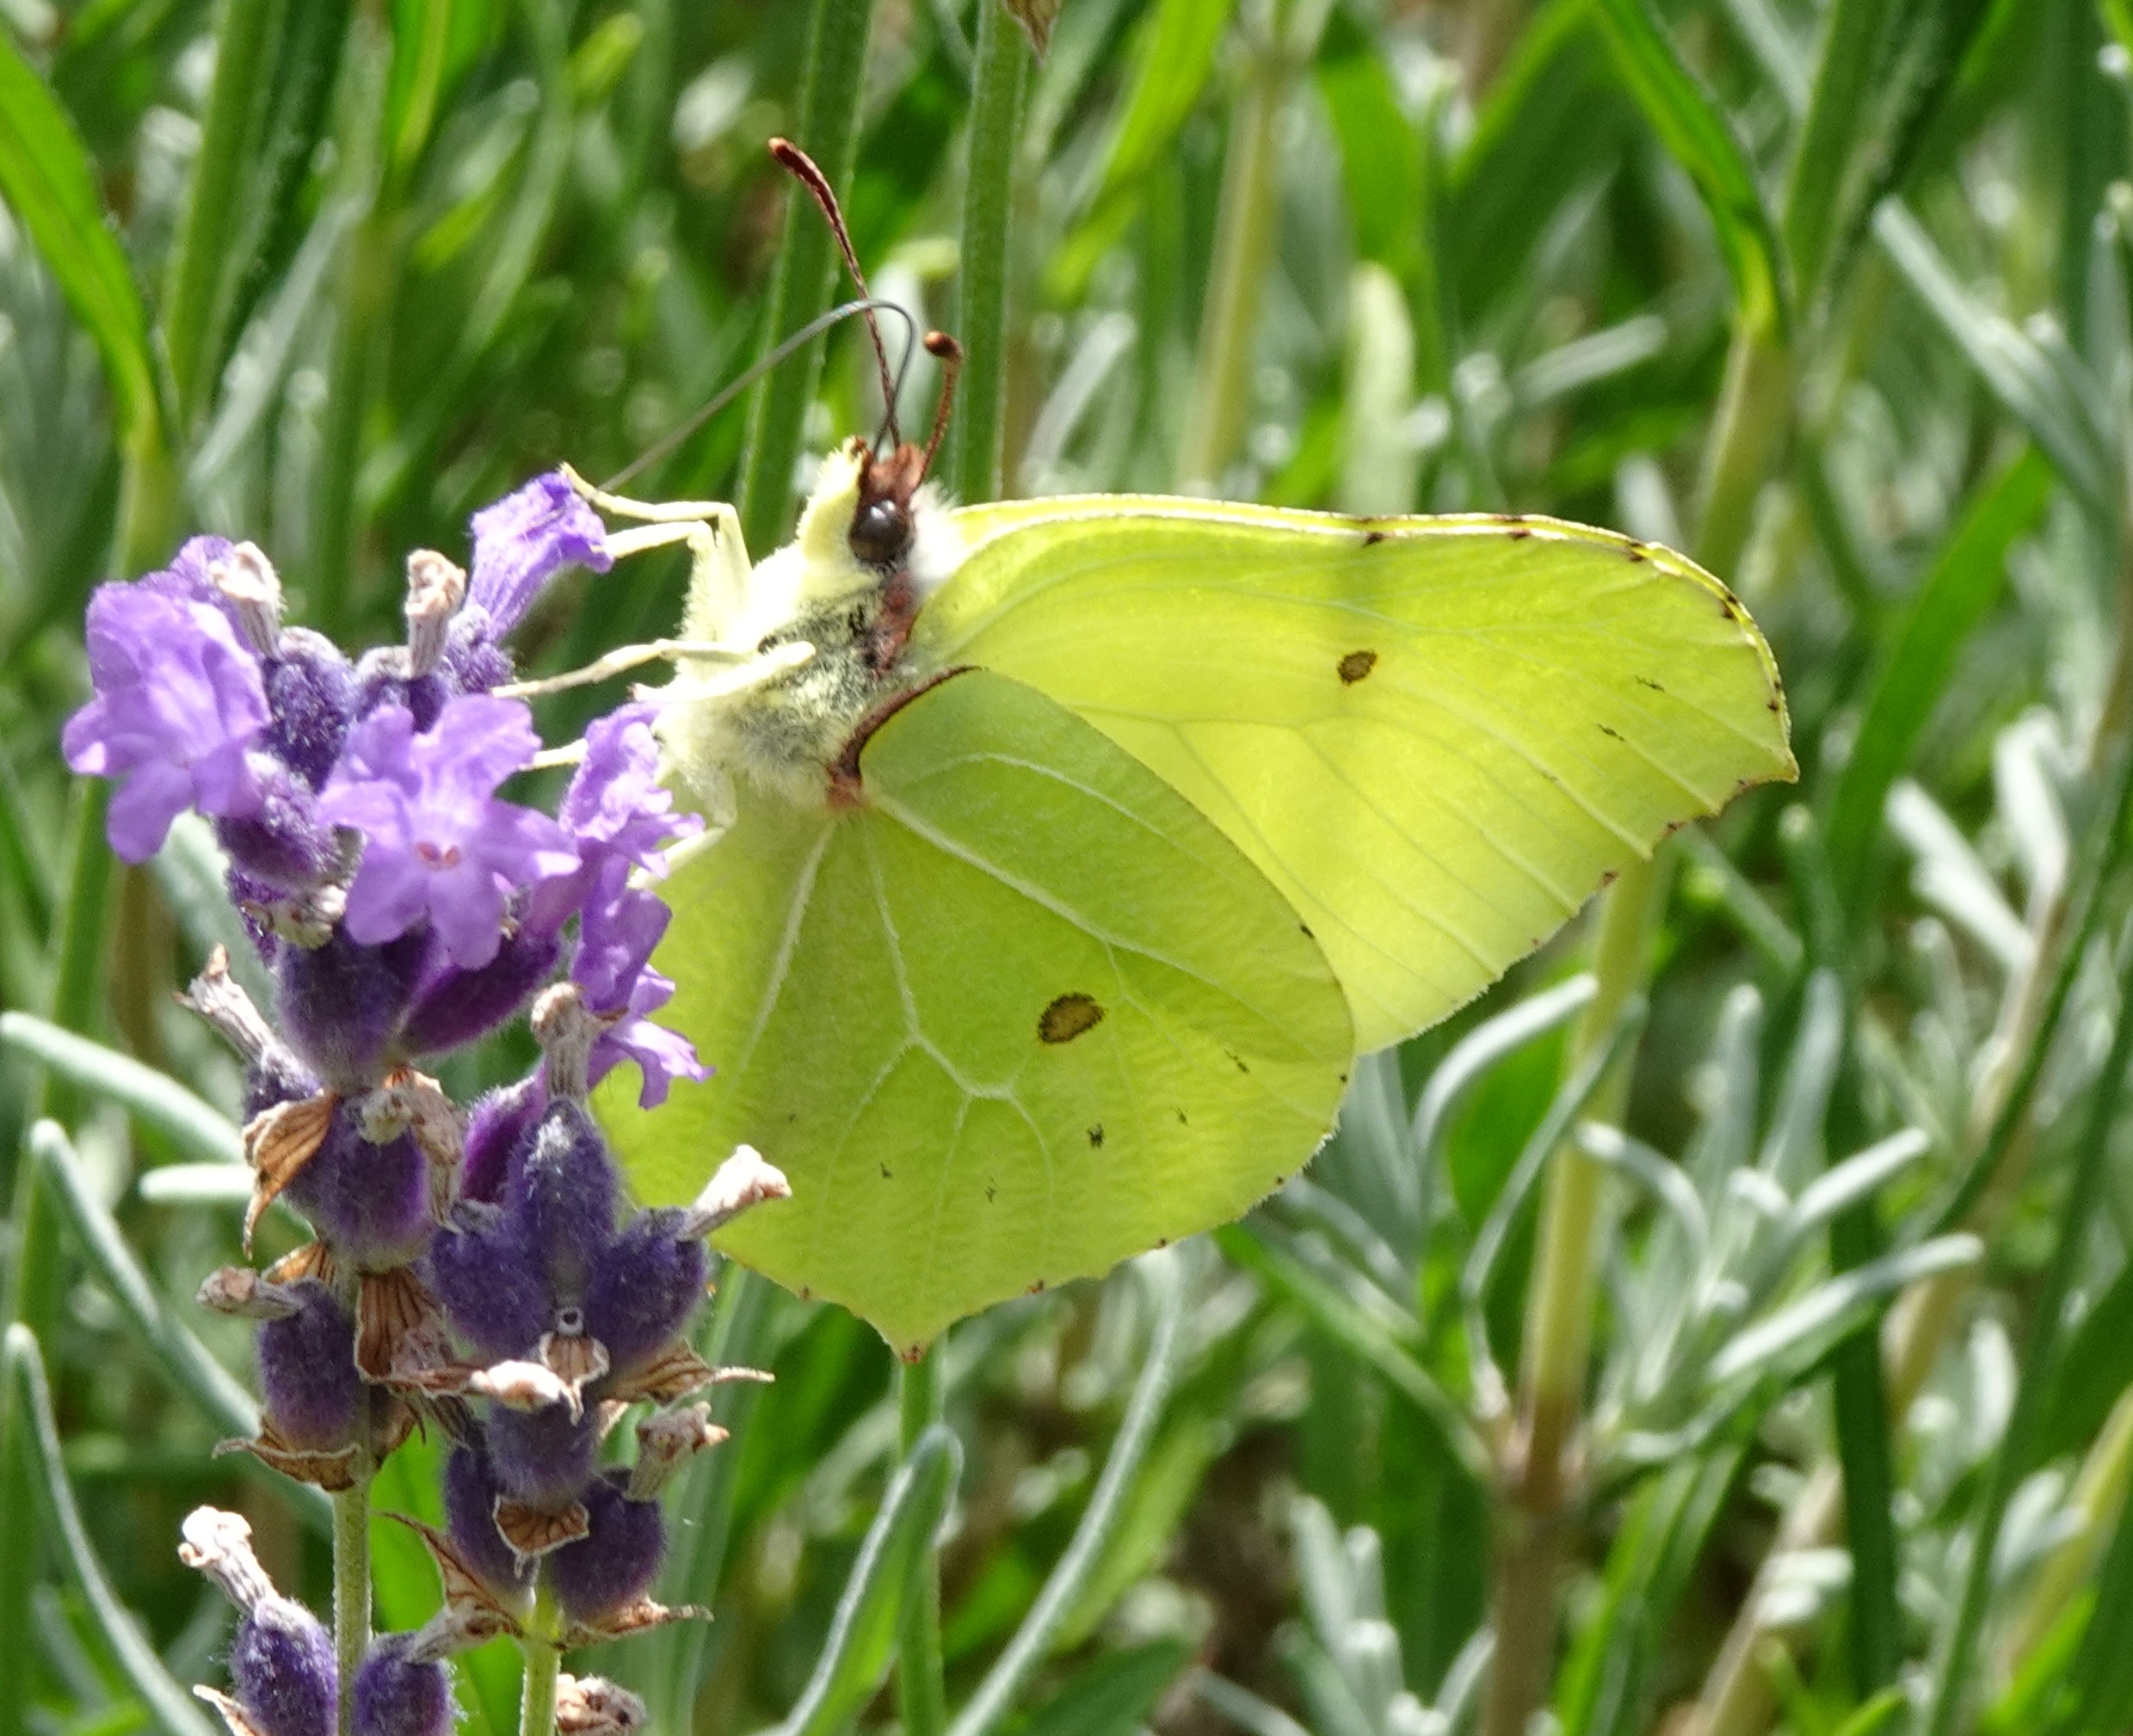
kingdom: Animalia
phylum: Arthropoda
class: Insecta
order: Lepidoptera
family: Pieridae
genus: Gonepteryx
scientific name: Gonepteryx rhamni
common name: Citronsommerfugl
